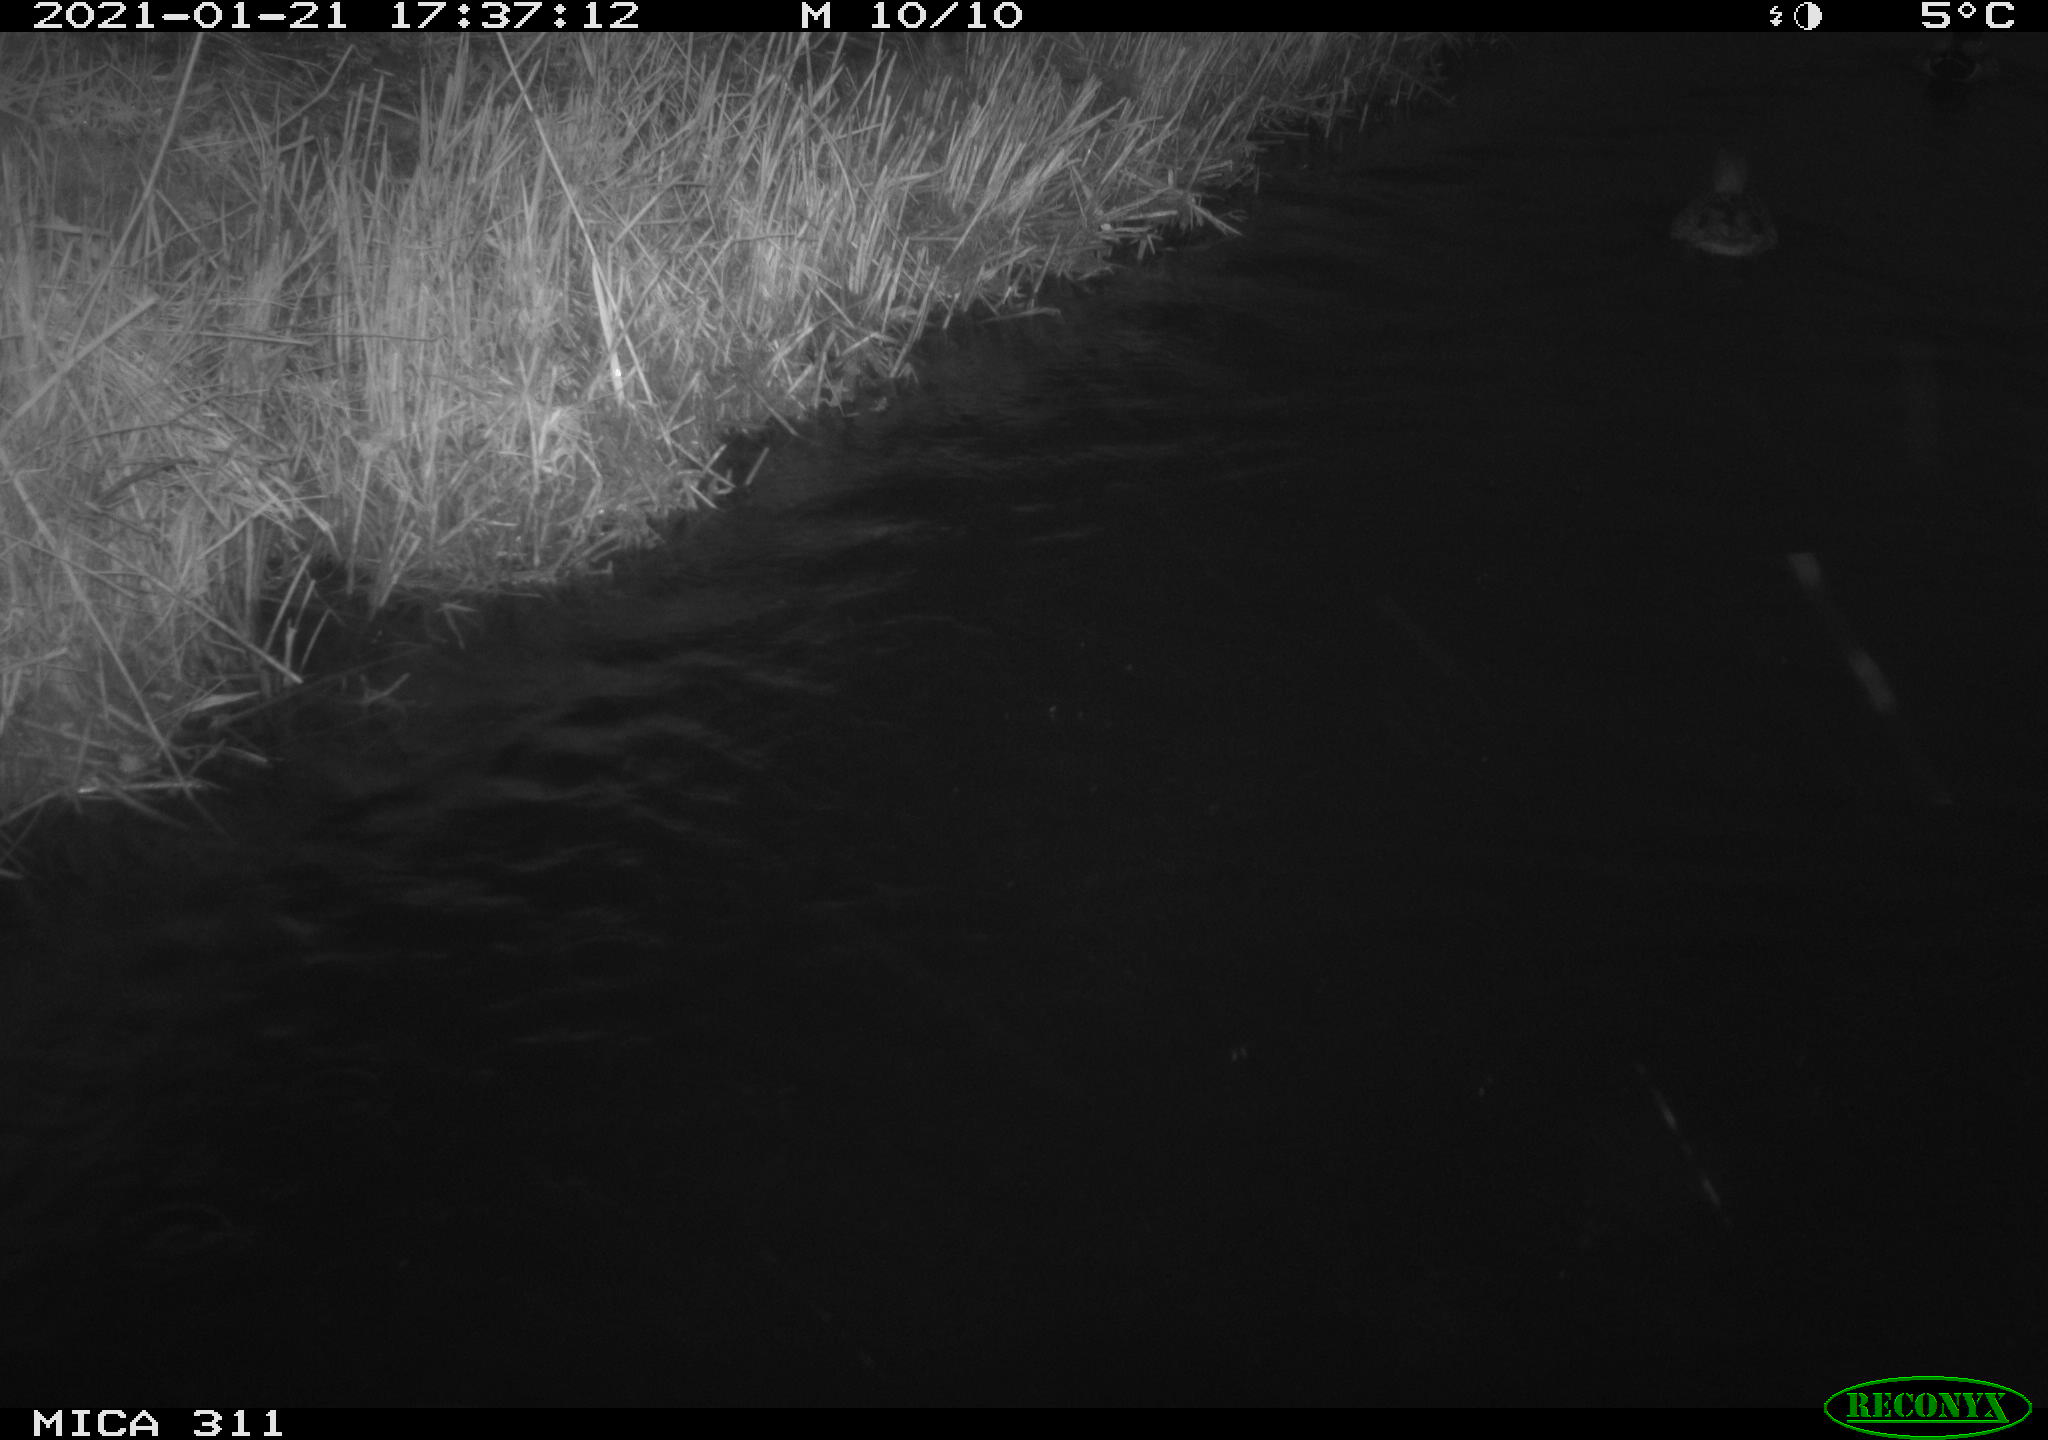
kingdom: Animalia
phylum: Chordata
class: Aves
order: Anseriformes
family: Anatidae
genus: Anas
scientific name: Anas platyrhynchos
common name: Mallard
